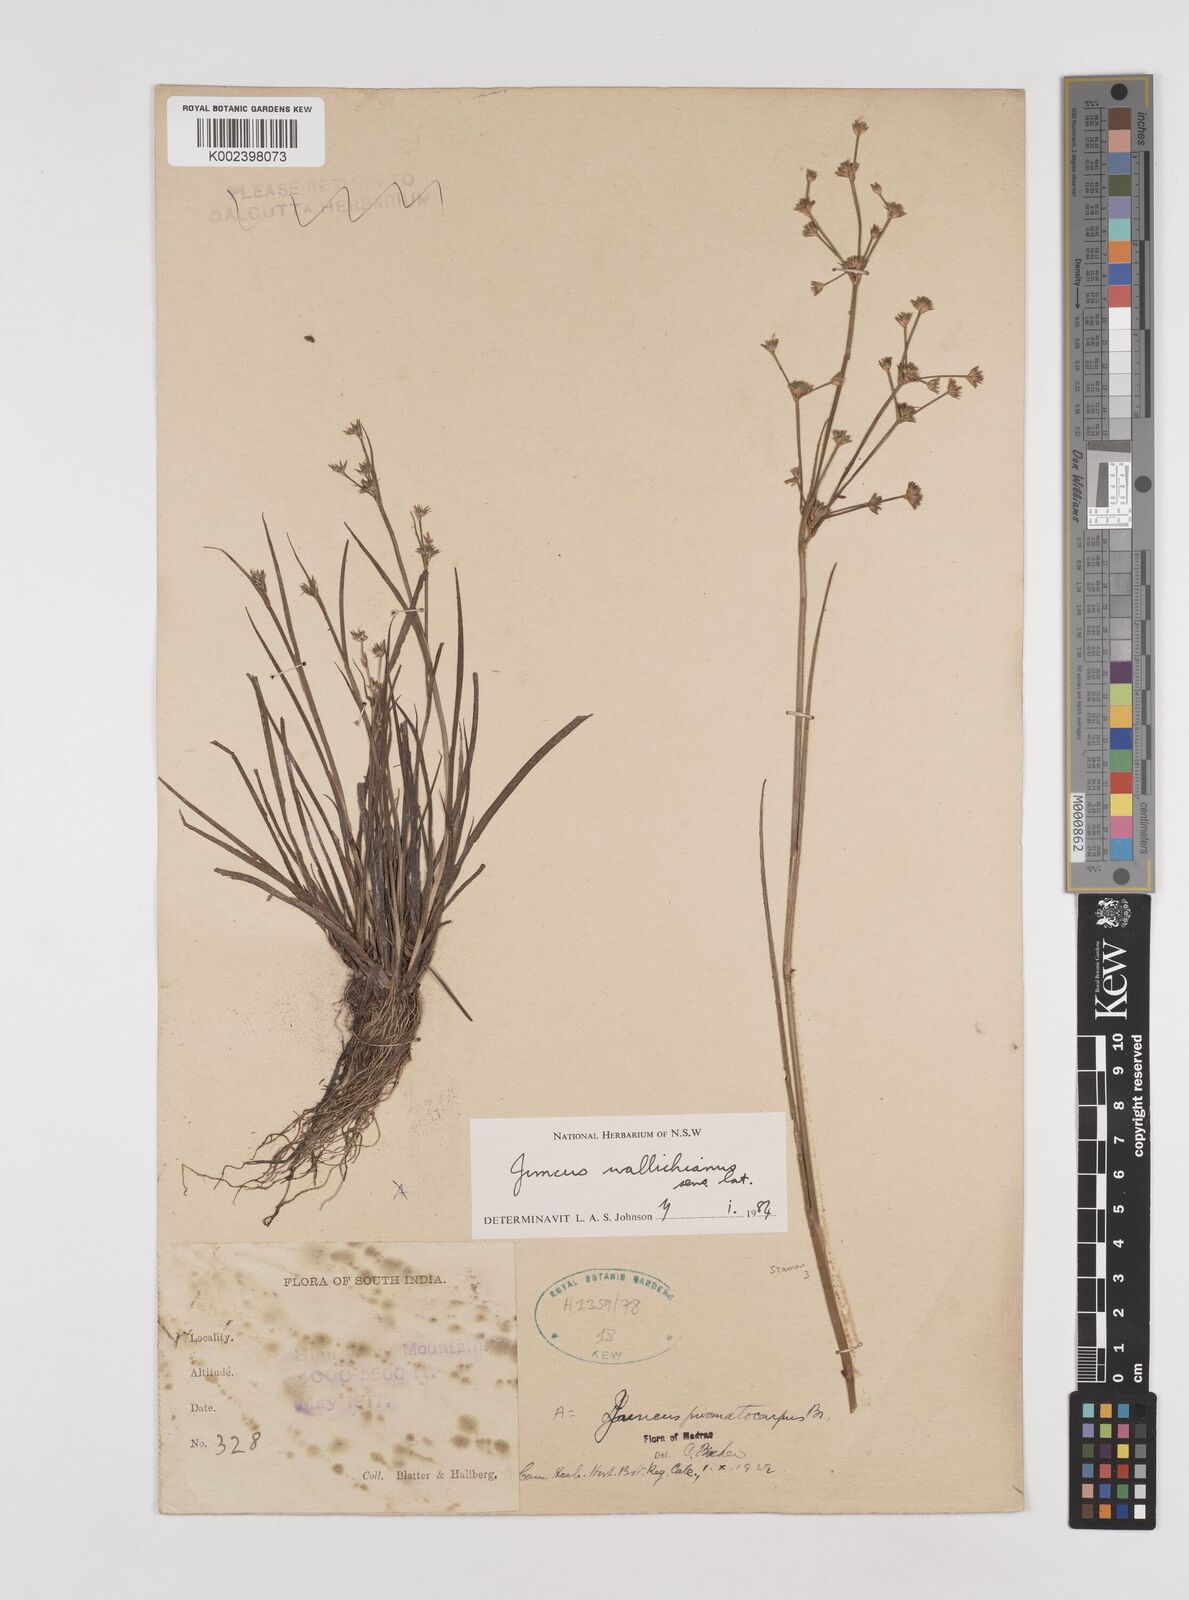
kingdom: Plantae
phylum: Tracheophyta
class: Liliopsida
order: Poales
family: Juncaceae
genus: Juncus
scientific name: Juncus wallichianus
